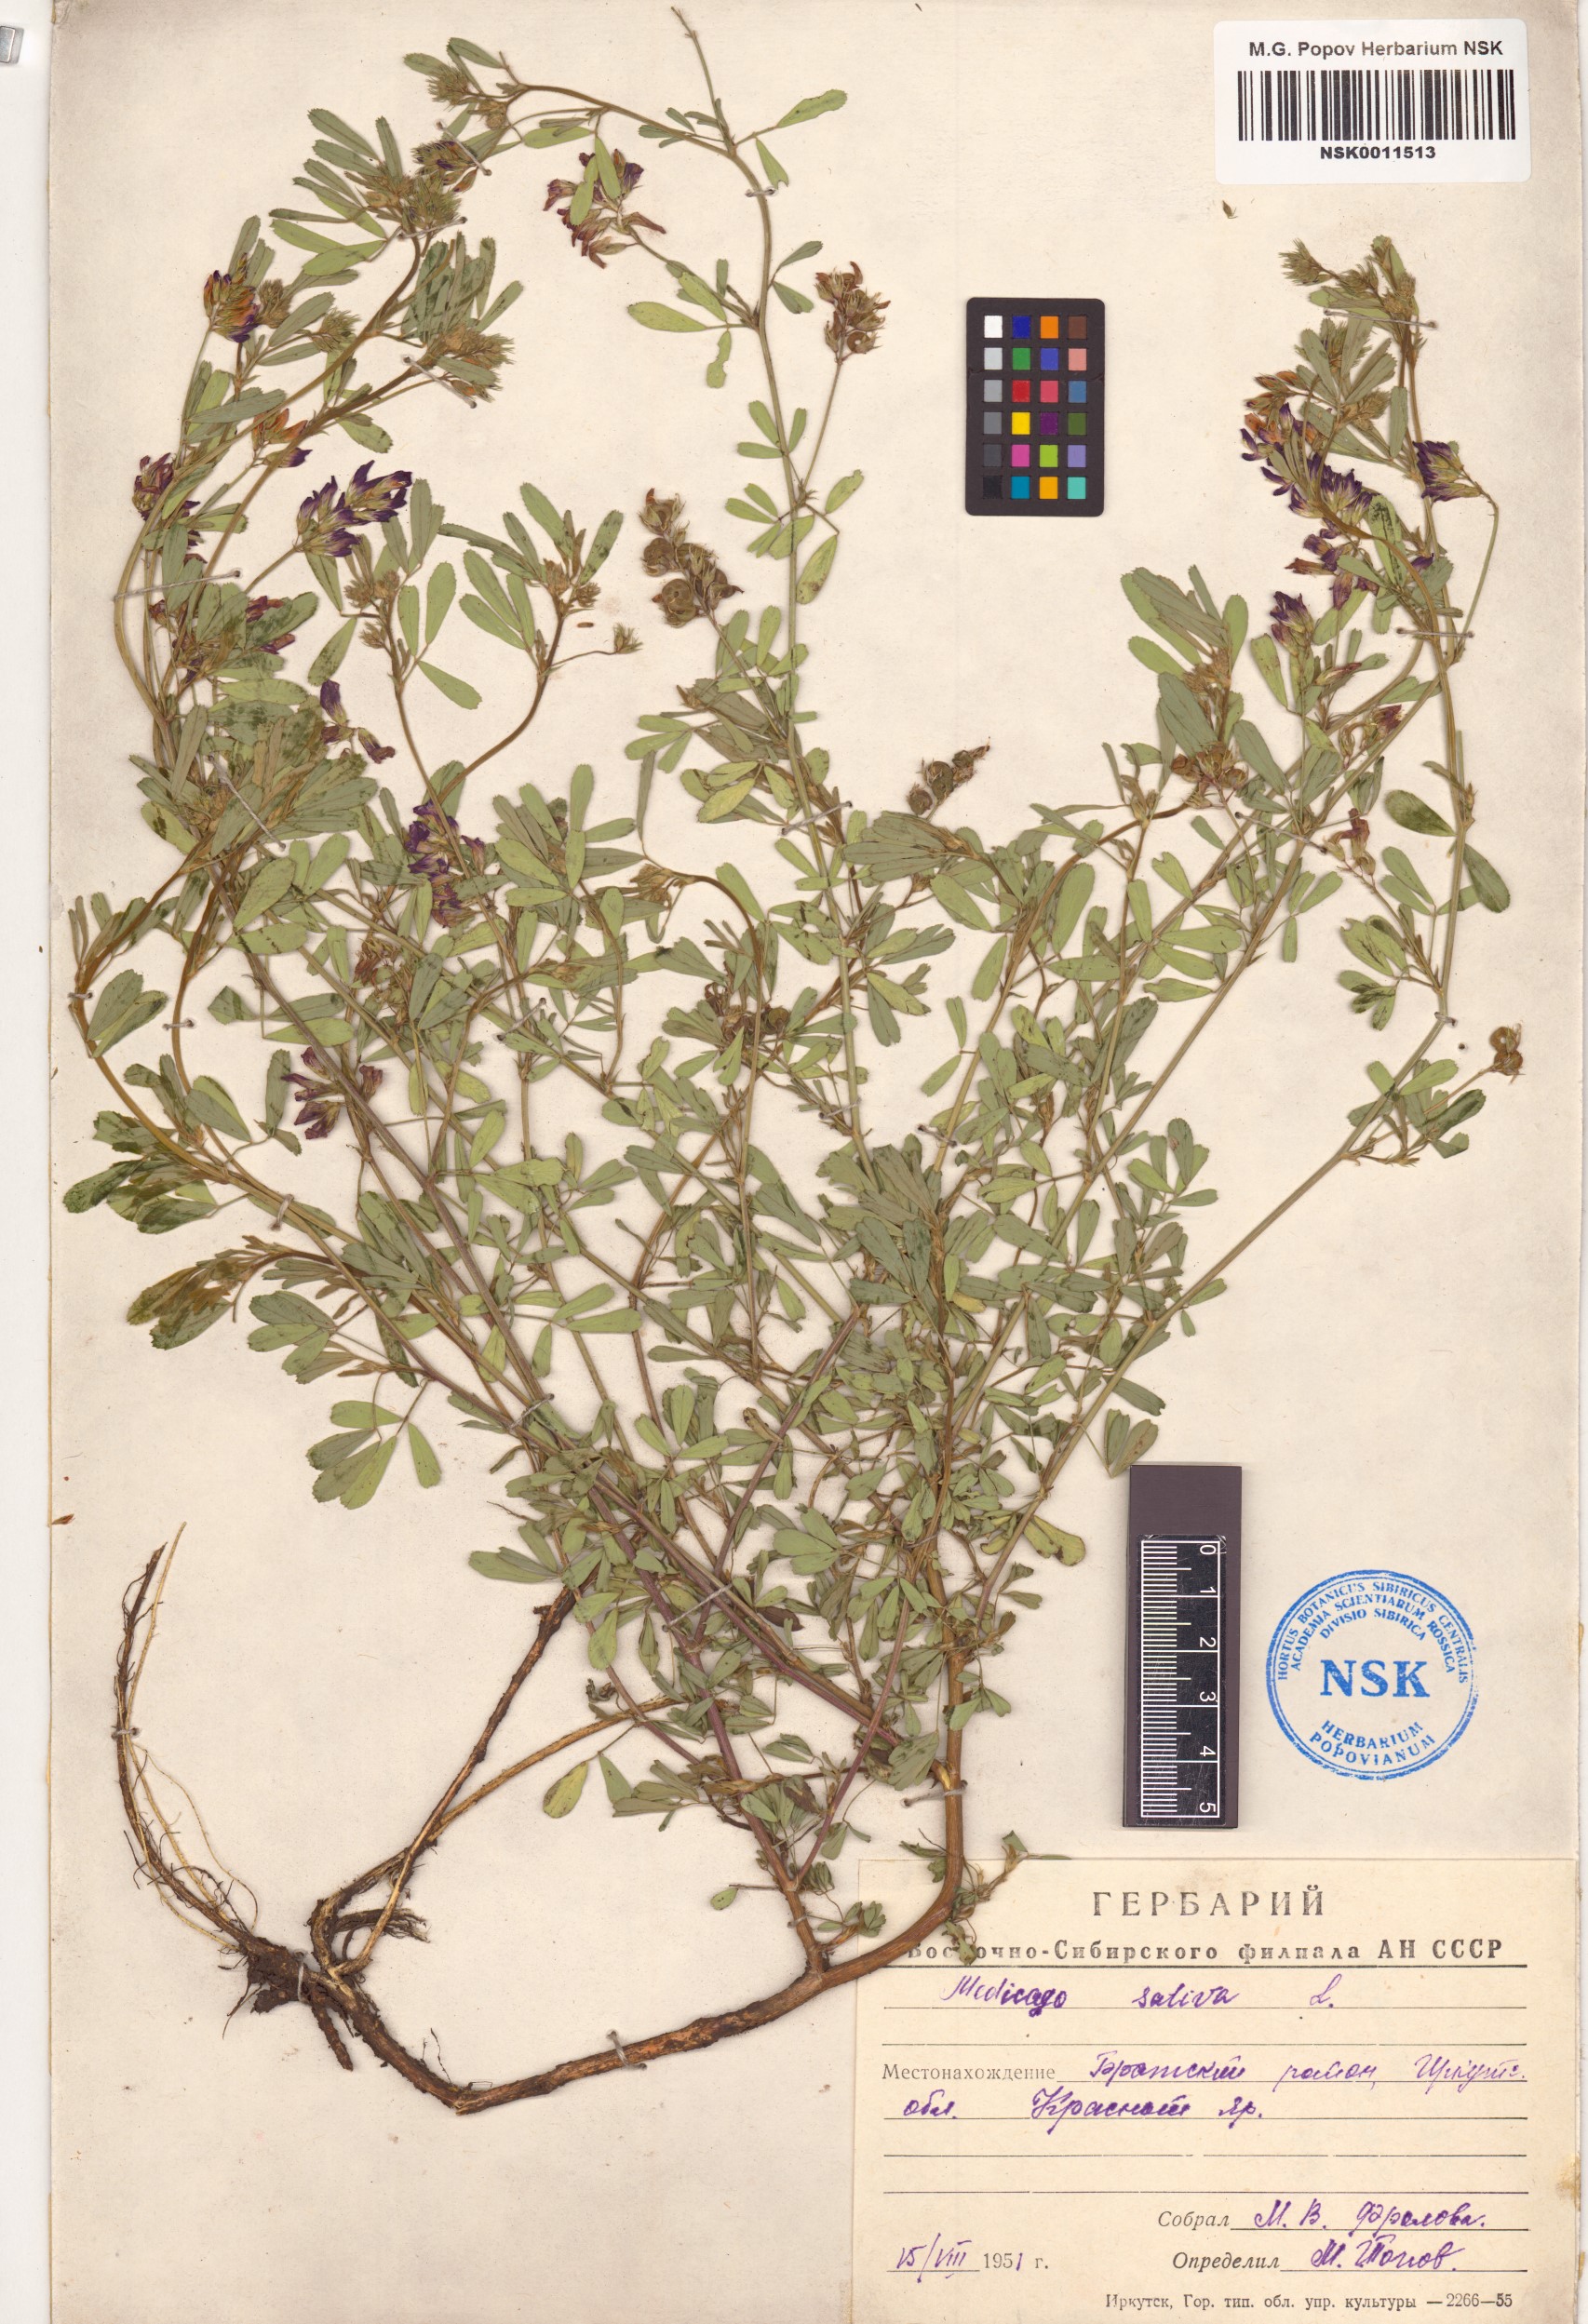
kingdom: Plantae
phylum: Tracheophyta
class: Magnoliopsida
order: Fabales
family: Fabaceae
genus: Medicago
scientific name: Medicago sativa
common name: Alfalfa
